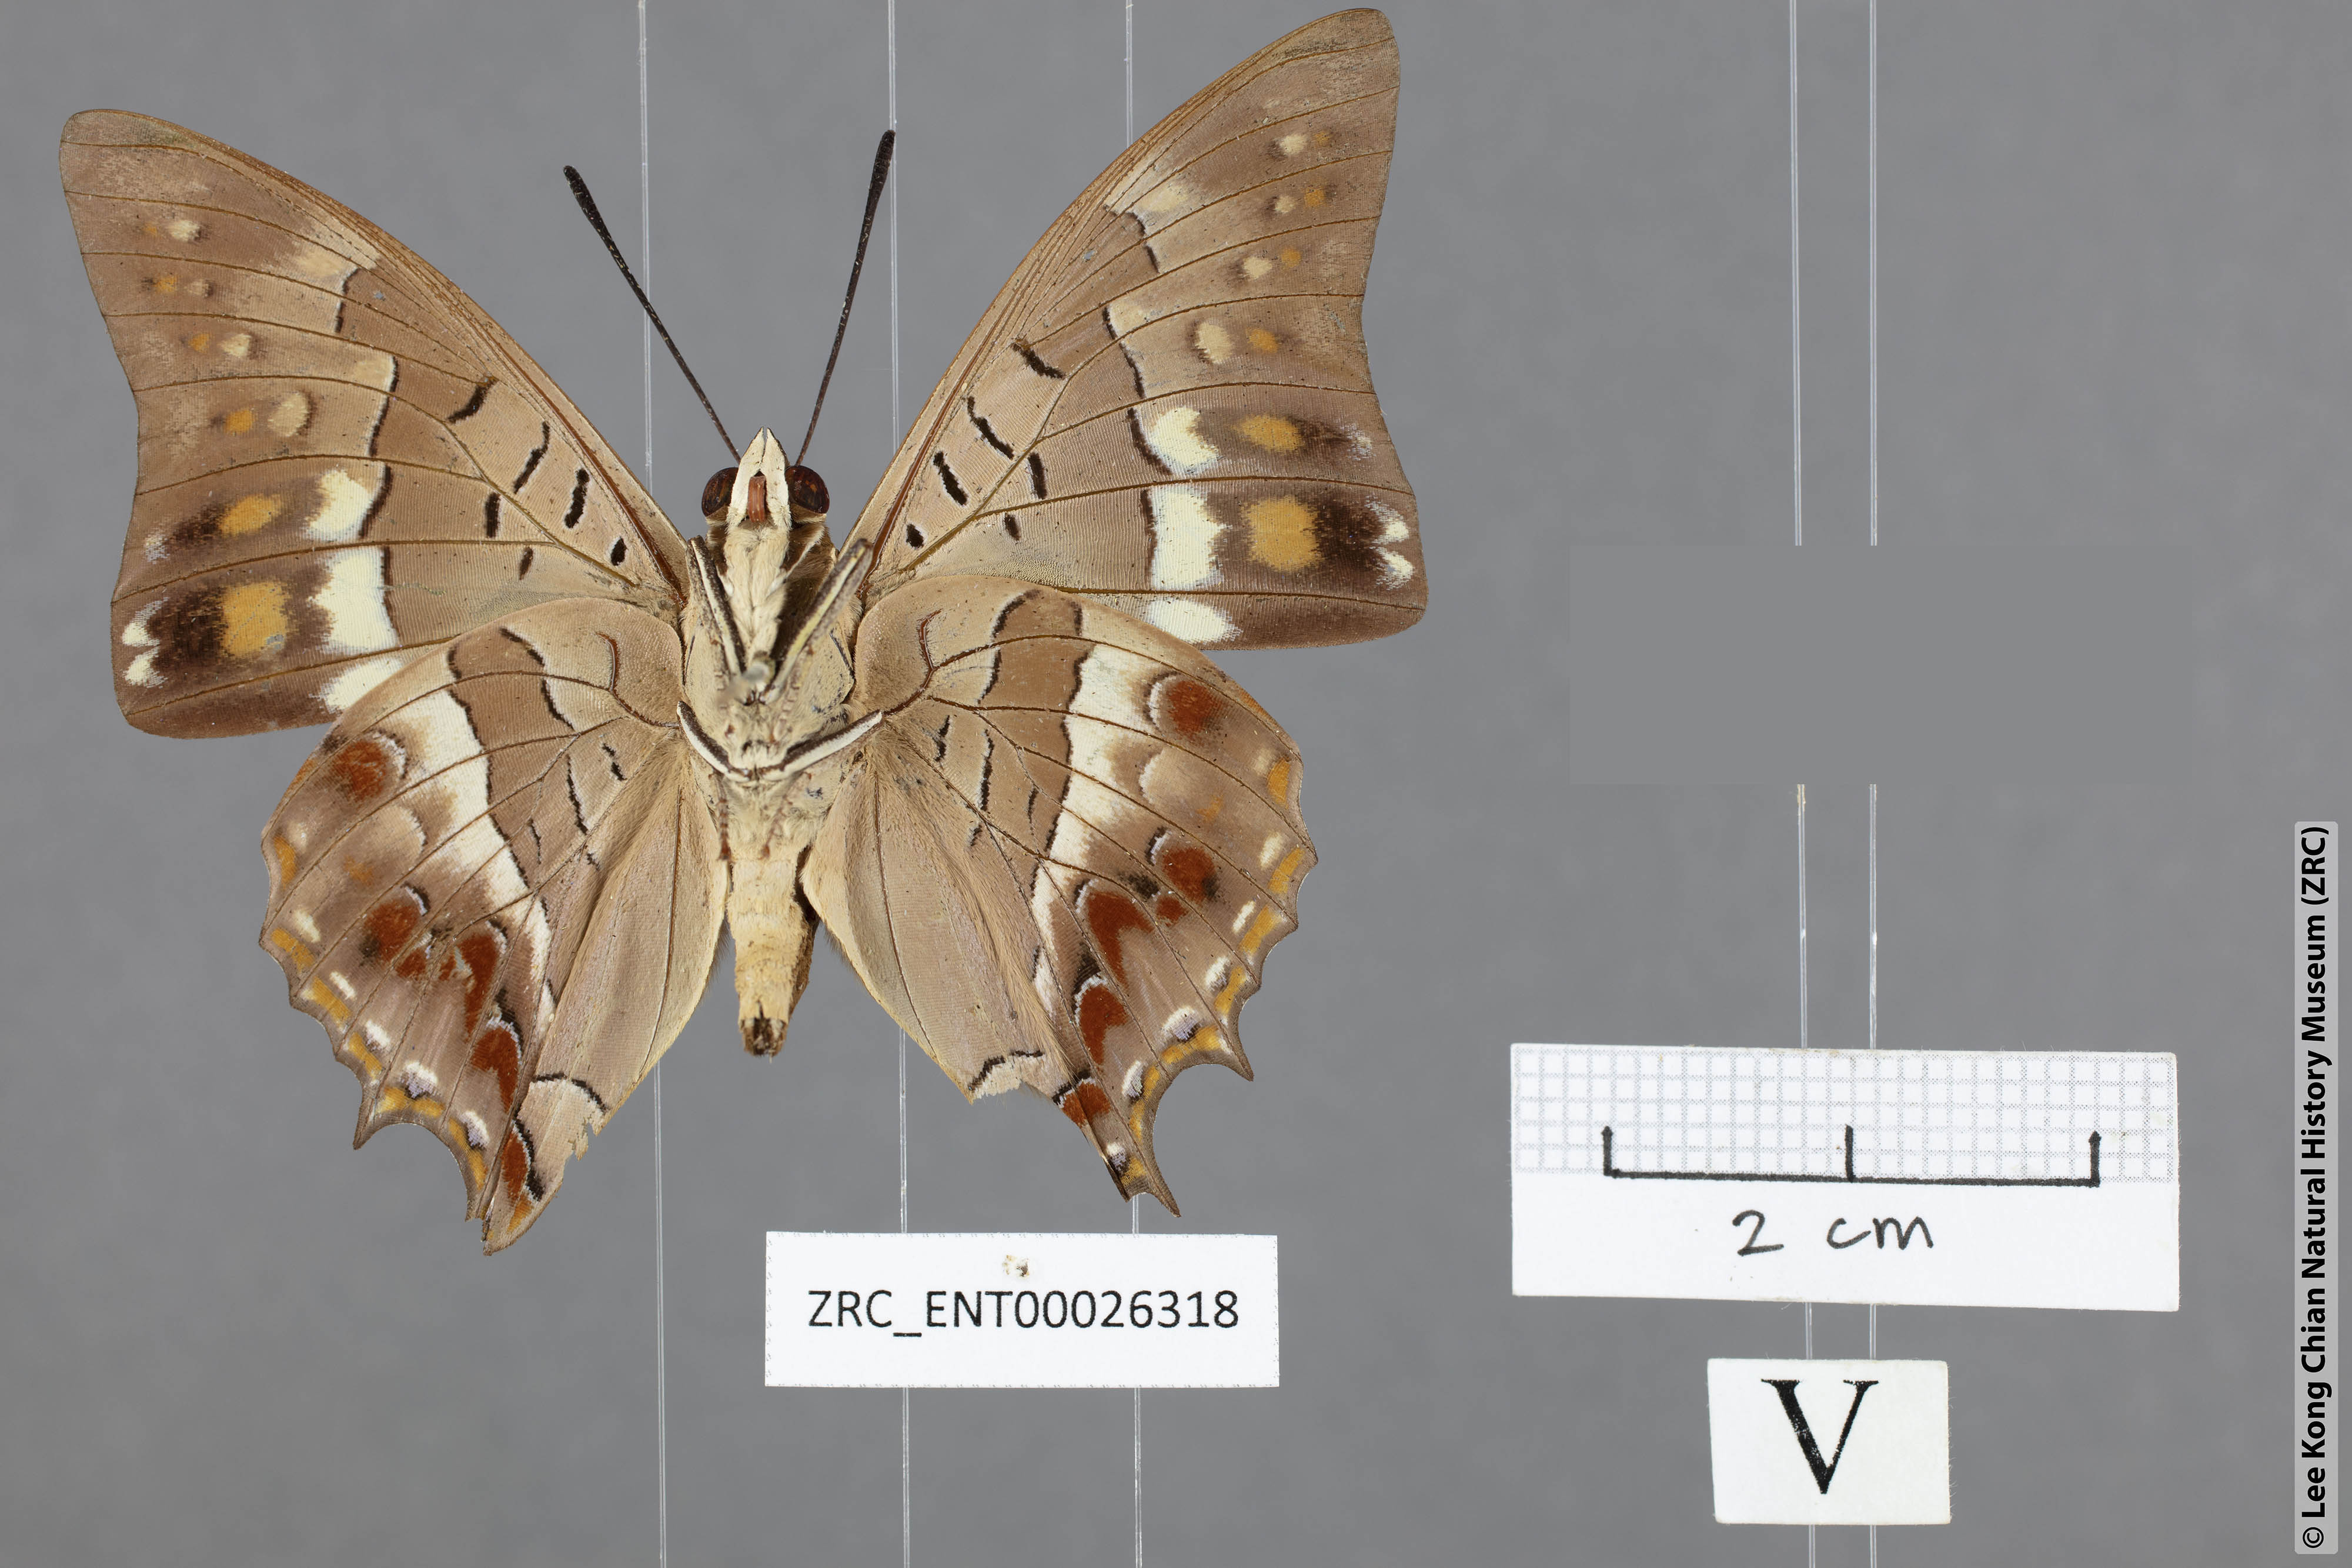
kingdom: Animalia
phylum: Arthropoda
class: Insecta
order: Lepidoptera
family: Nymphalidae
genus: Charaxes
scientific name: Charaxes solon
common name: Black rajah
